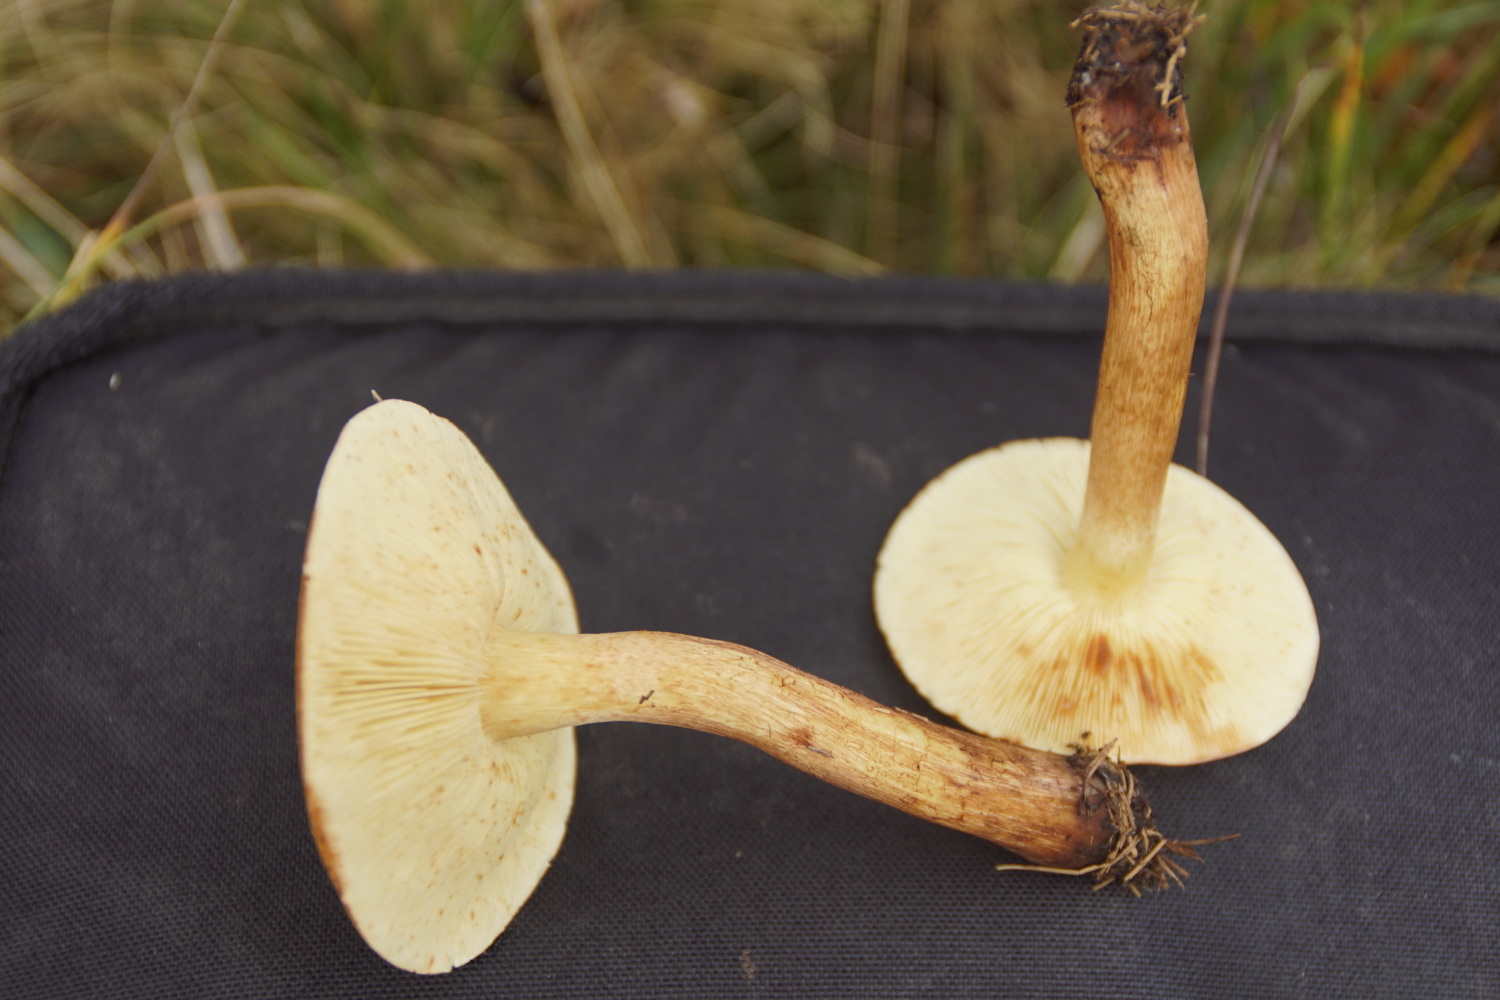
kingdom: Fungi
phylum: Basidiomycota
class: Agaricomycetes
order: Agaricales
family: Tricholomataceae
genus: Tricholoma
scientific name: Tricholoma fulvum
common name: birke-ridderhat
